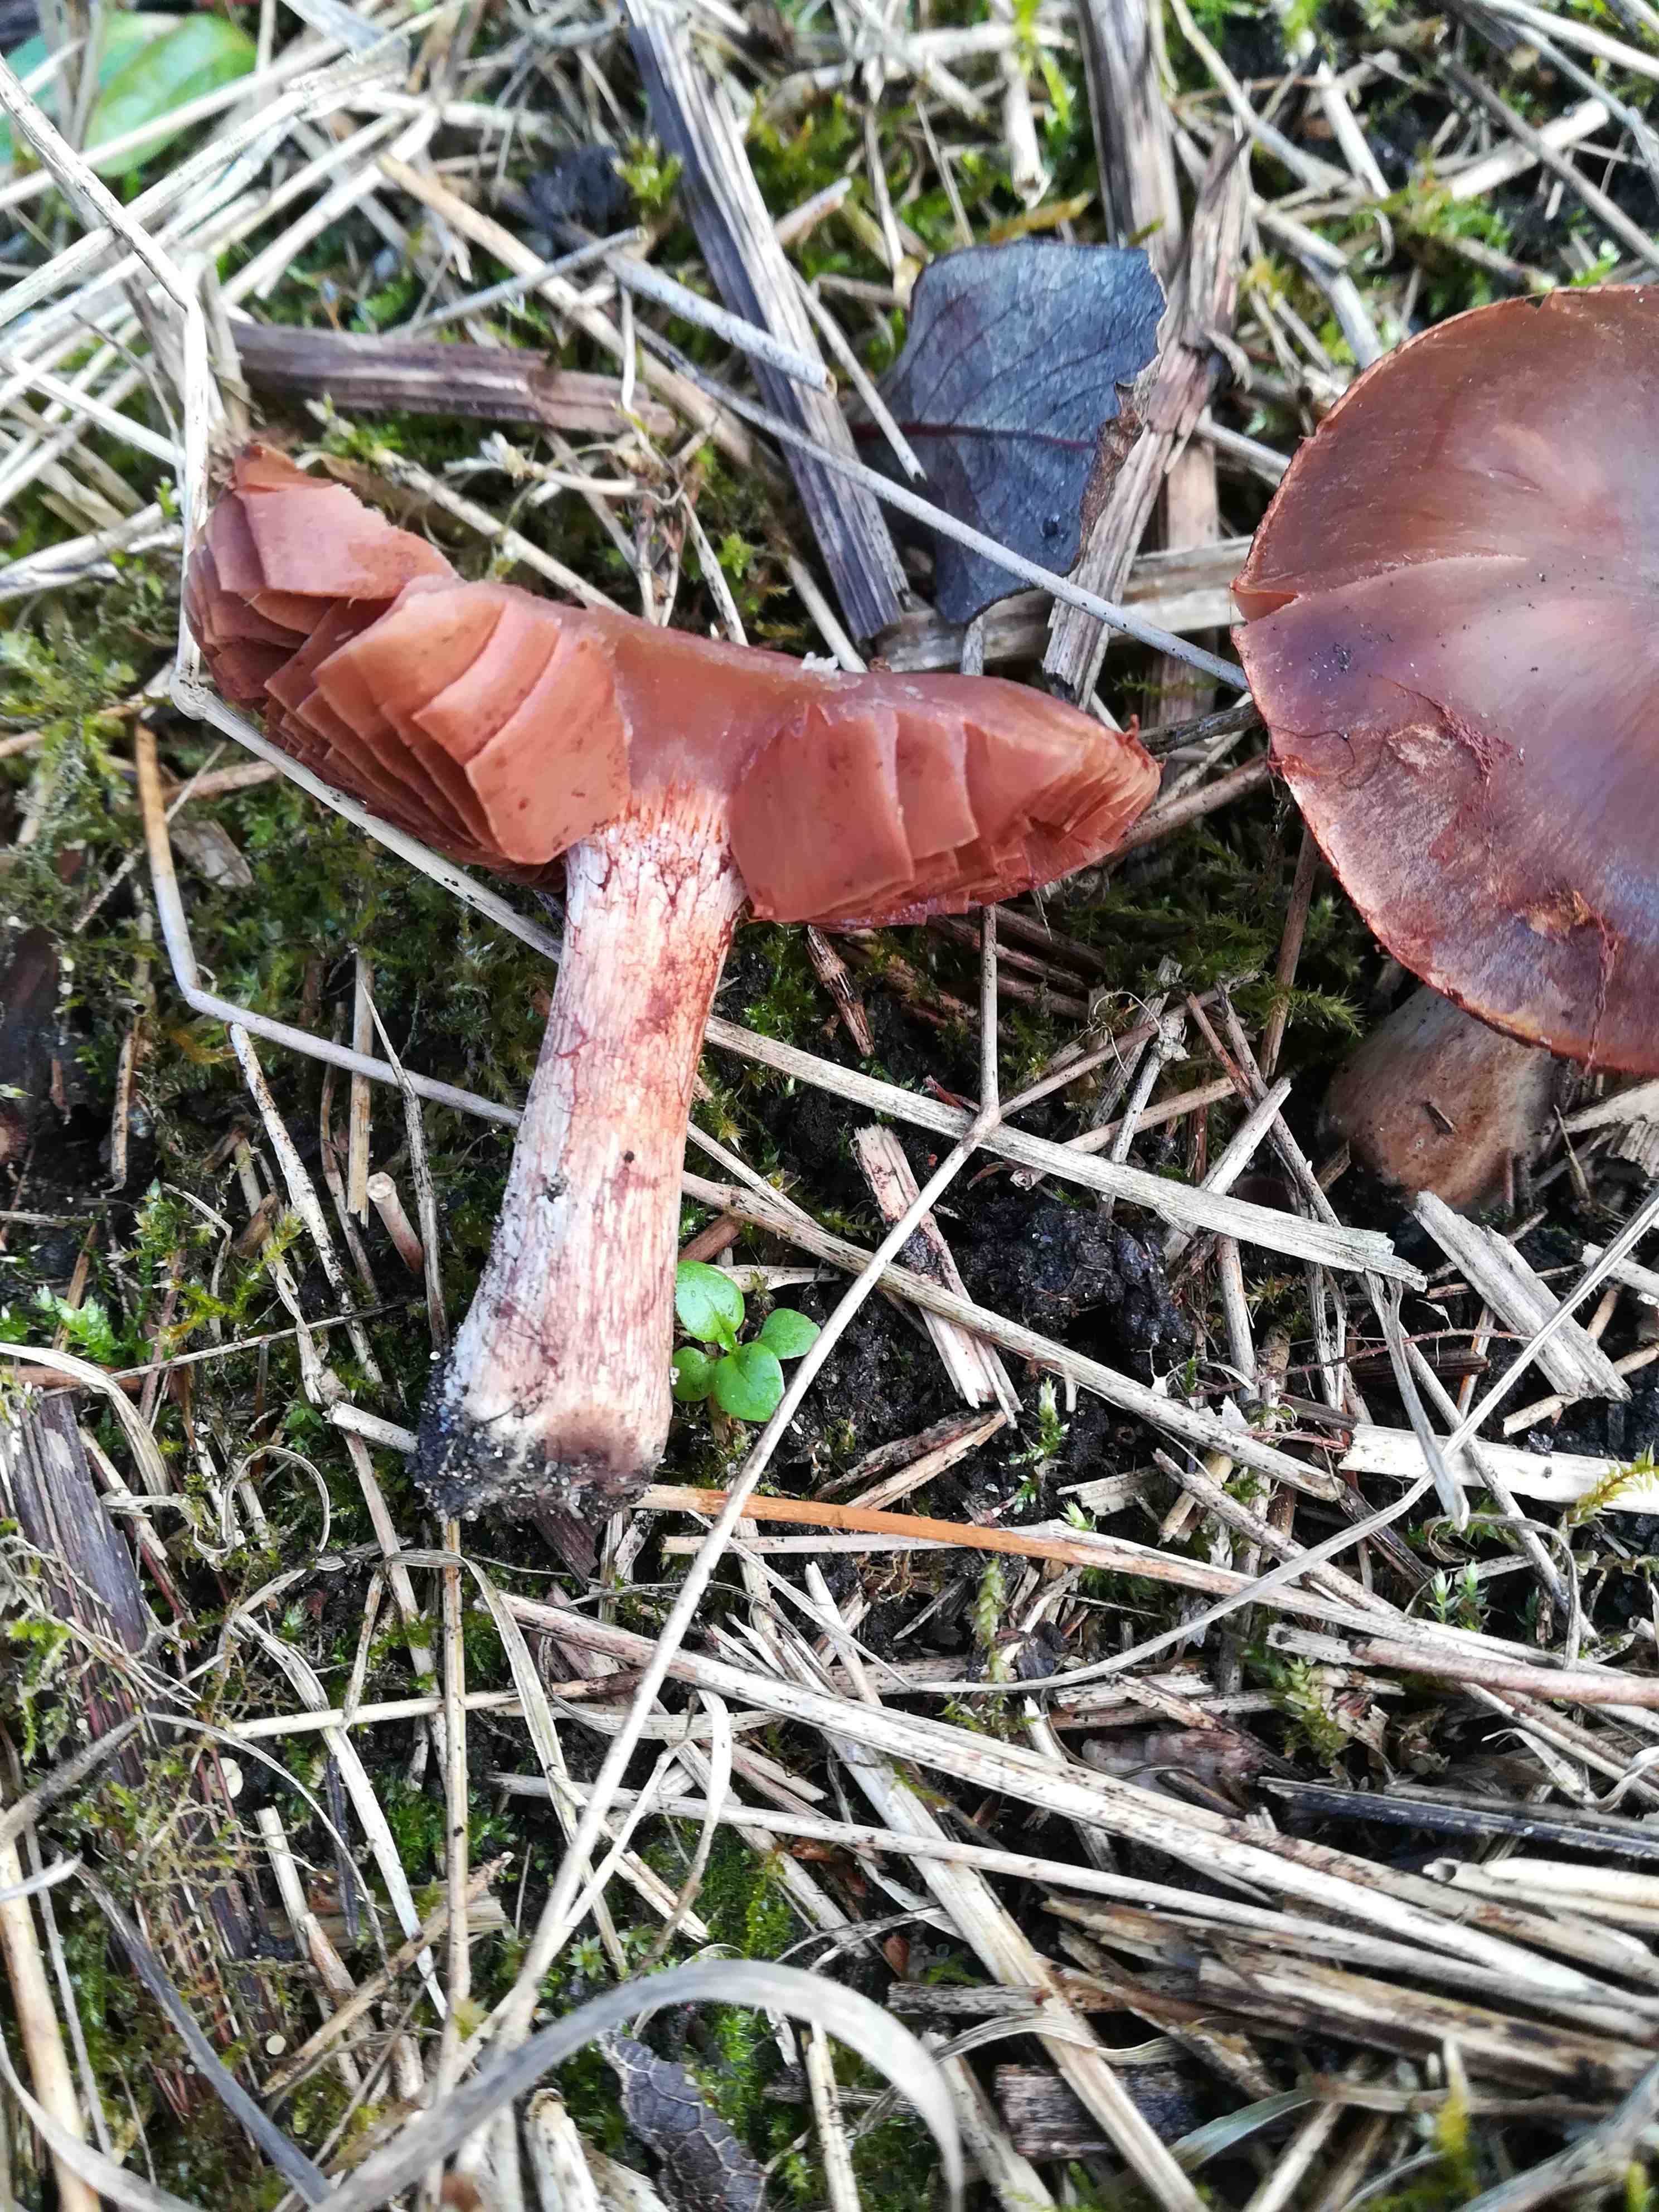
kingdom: Fungi
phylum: Basidiomycota
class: Agaricomycetes
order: Agaricales
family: Cortinariaceae
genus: Cortinarius
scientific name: Cortinarius
